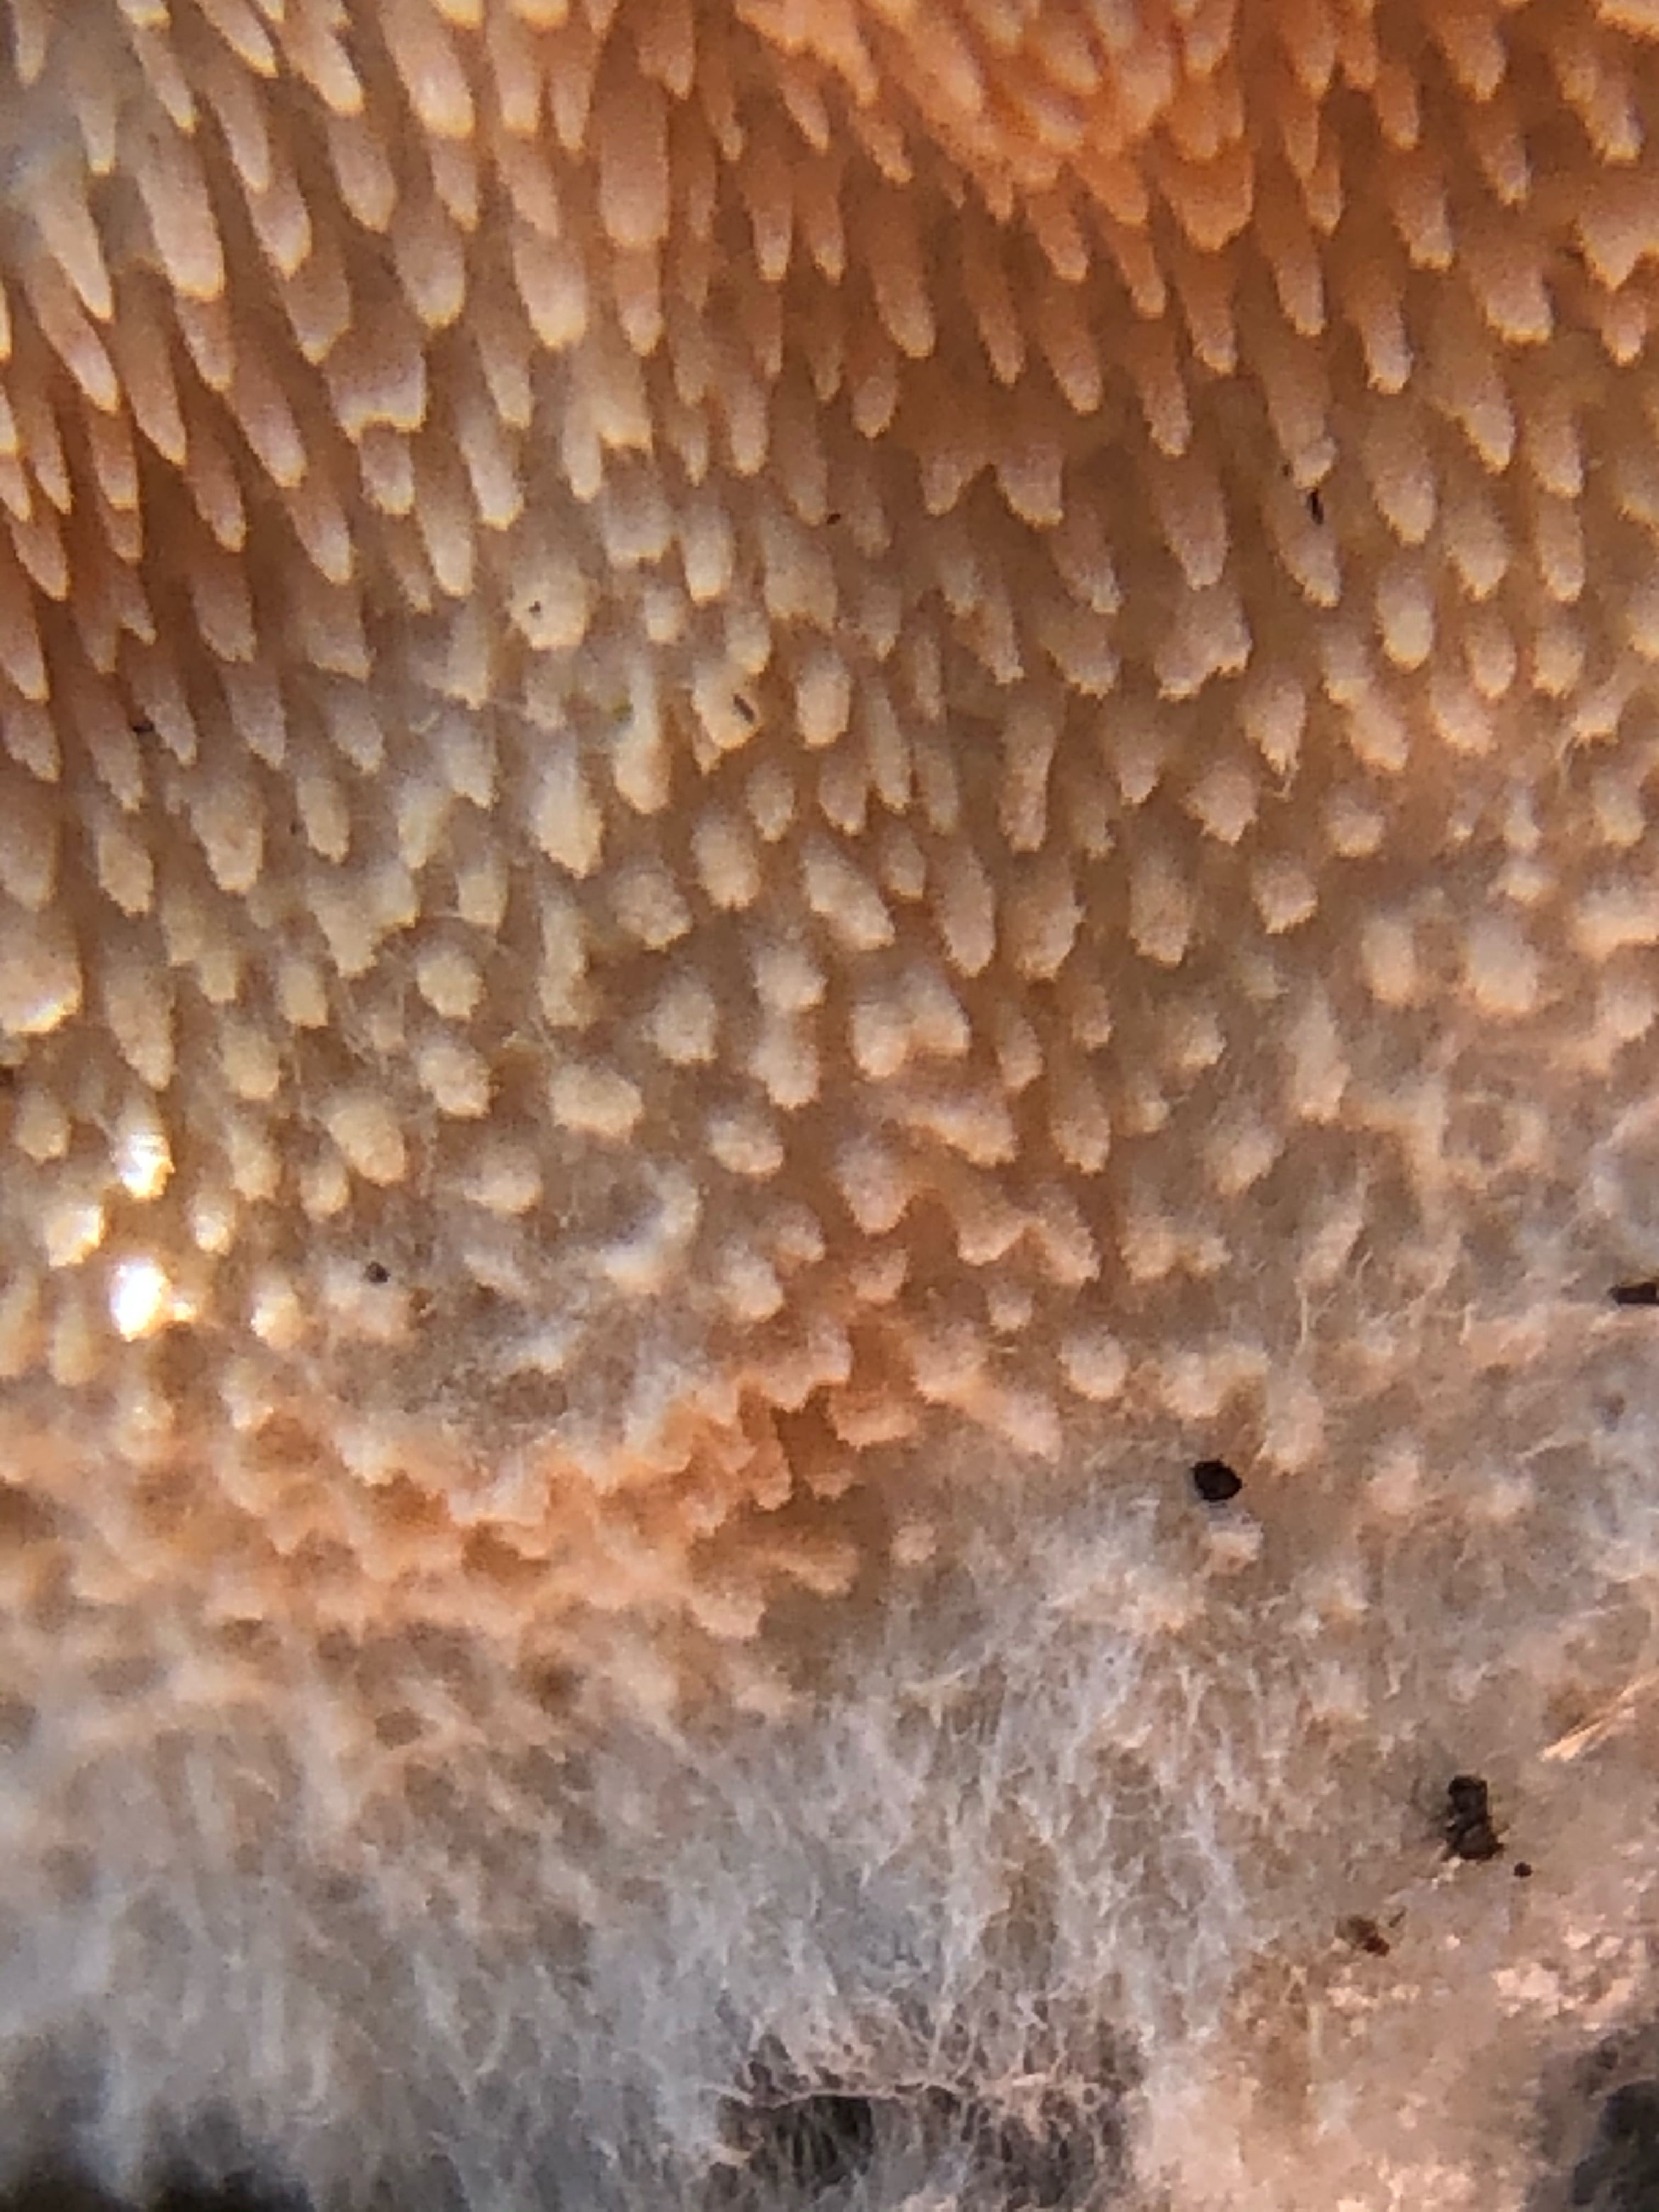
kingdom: Fungi
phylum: Basidiomycota
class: Agaricomycetes
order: Polyporales
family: Steccherinaceae
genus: Steccherinum
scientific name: Steccherinum ochraceum
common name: almindelig skønpig
